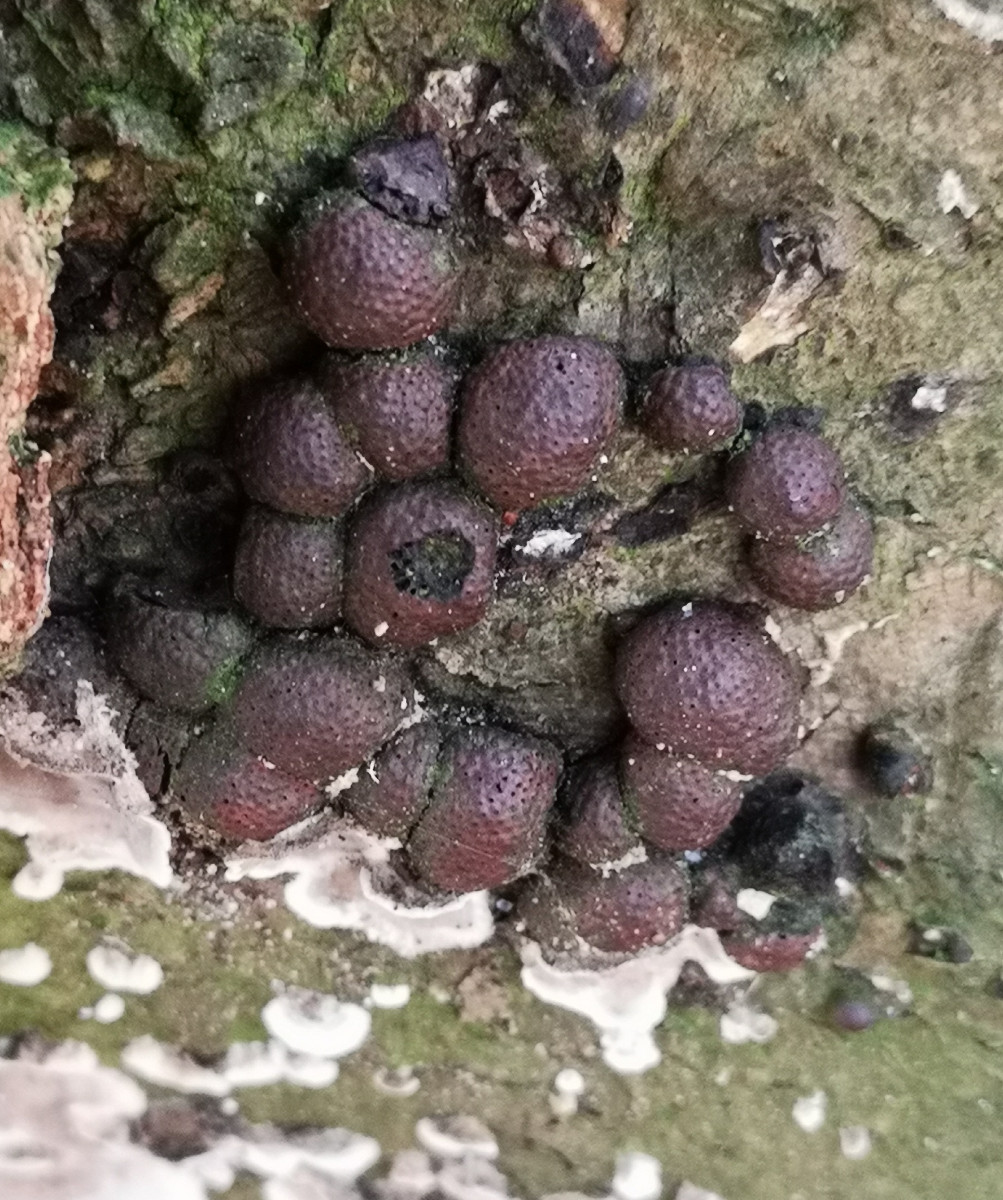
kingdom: Fungi
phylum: Ascomycota
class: Sordariomycetes
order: Xylariales
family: Hypoxylaceae
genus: Hypoxylon
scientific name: Hypoxylon fragiforme
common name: kuljordbær
